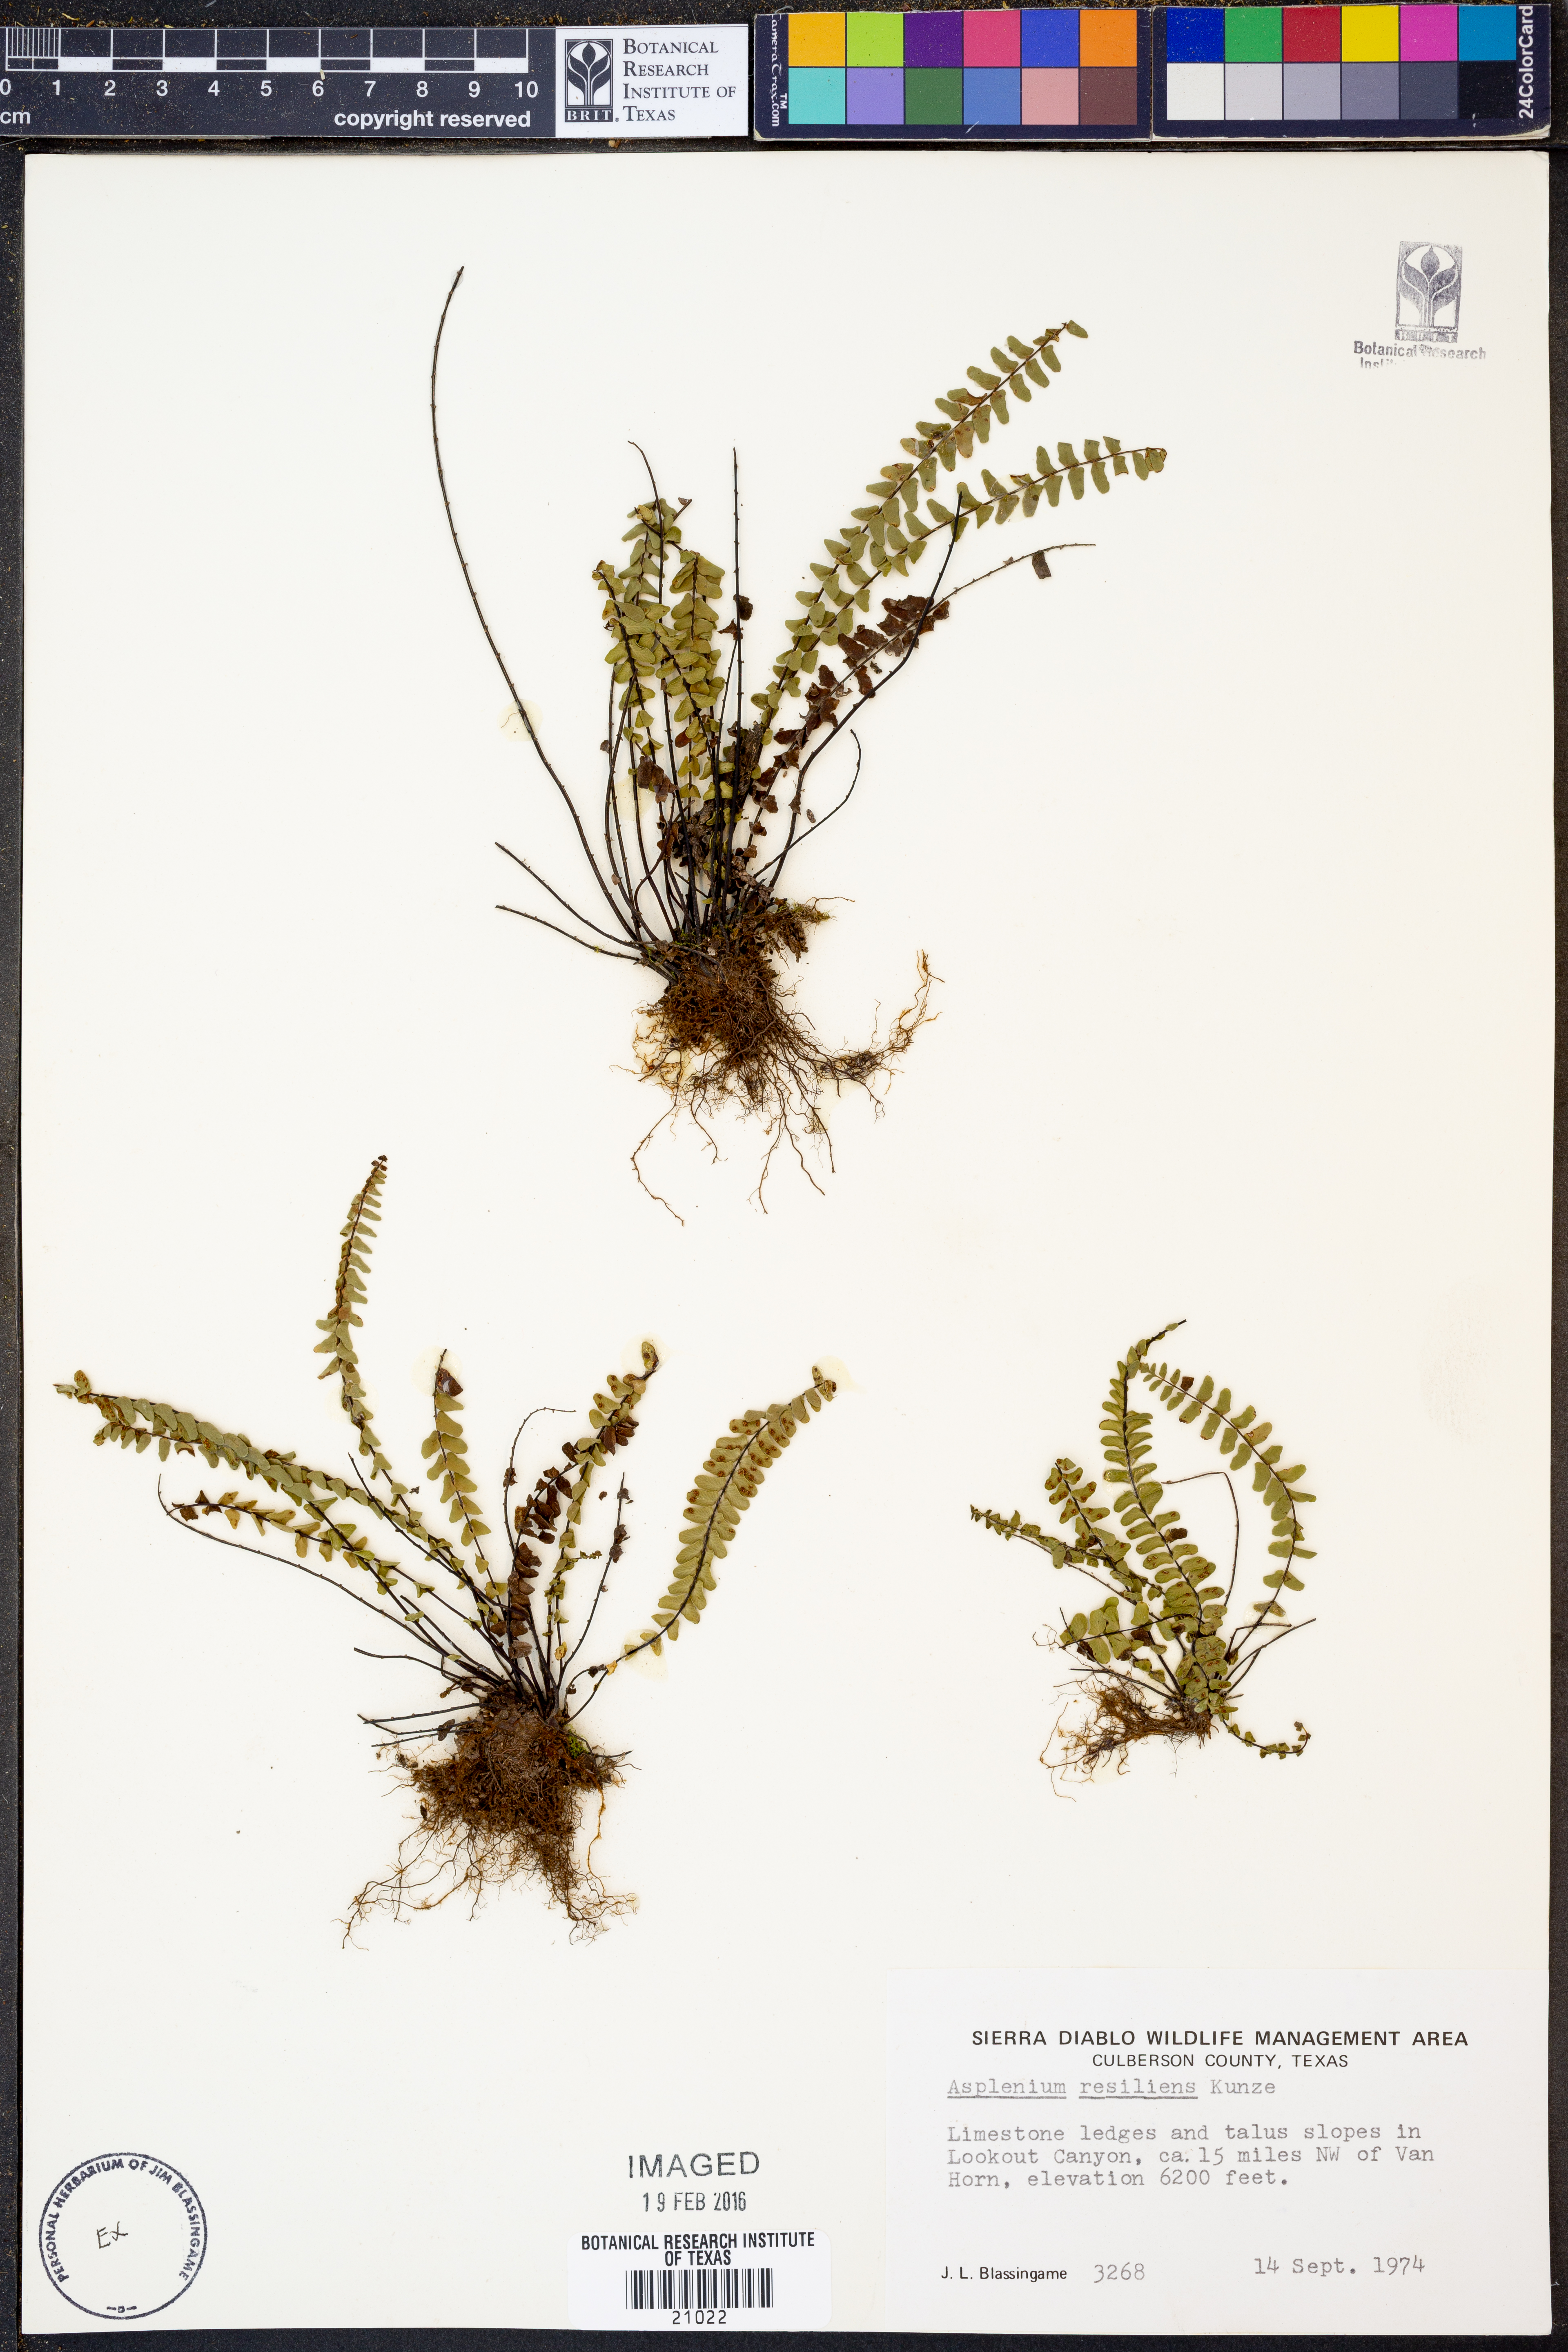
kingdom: Plantae
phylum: Tracheophyta
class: Polypodiopsida
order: Polypodiales
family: Aspleniaceae
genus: Asplenium
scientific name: Asplenium resiliens
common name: Blackstem spleenwort
